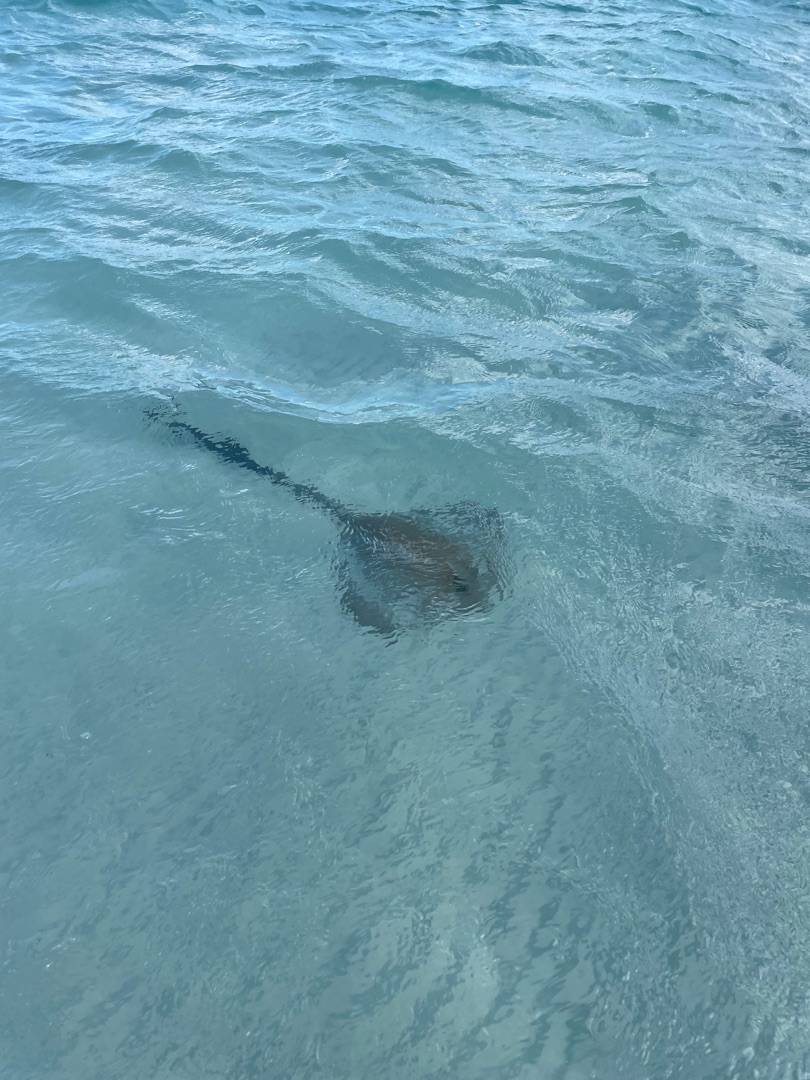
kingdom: Animalia
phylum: Chordata
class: Elasmobranchii
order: Rajiformes
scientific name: Rajiformes
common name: Rokkeordenen
